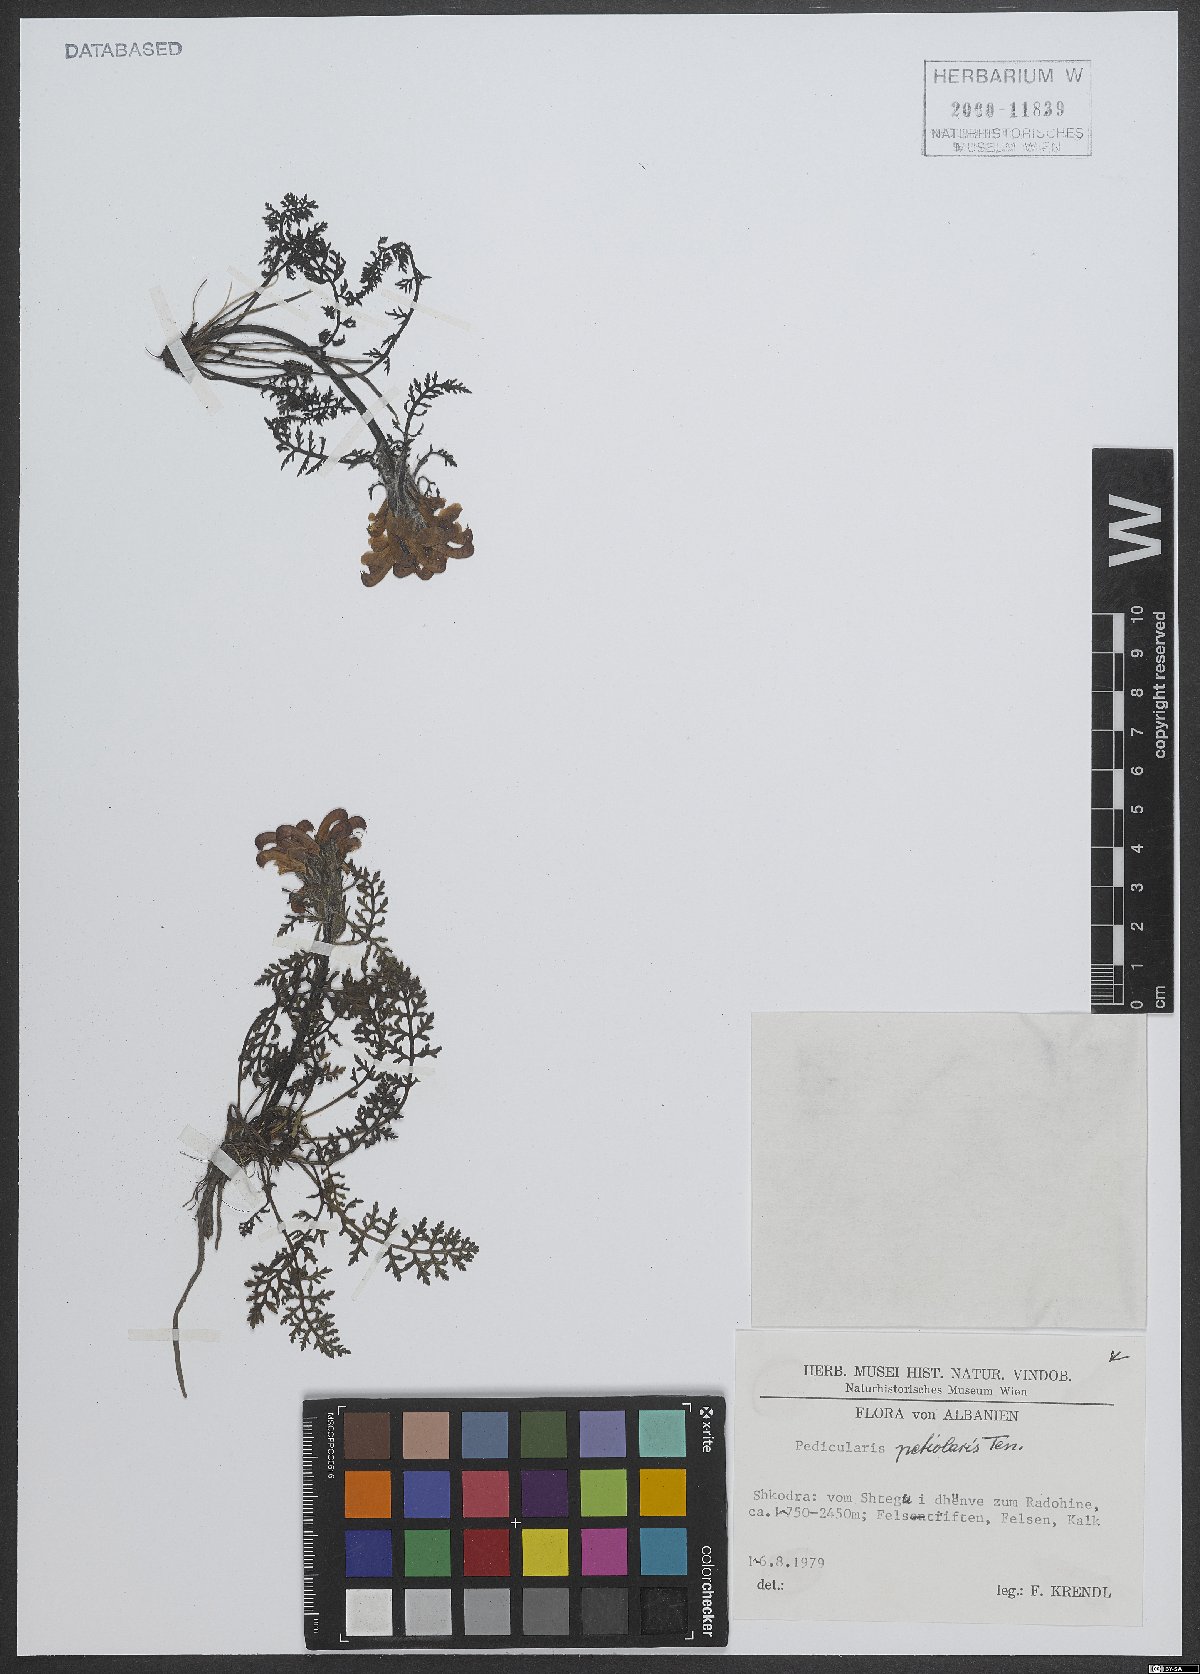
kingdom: Plantae
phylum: Tracheophyta
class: Magnoliopsida
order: Lamiales
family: Orobanchaceae
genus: Pedicularis
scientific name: Pedicularis petiolaris
